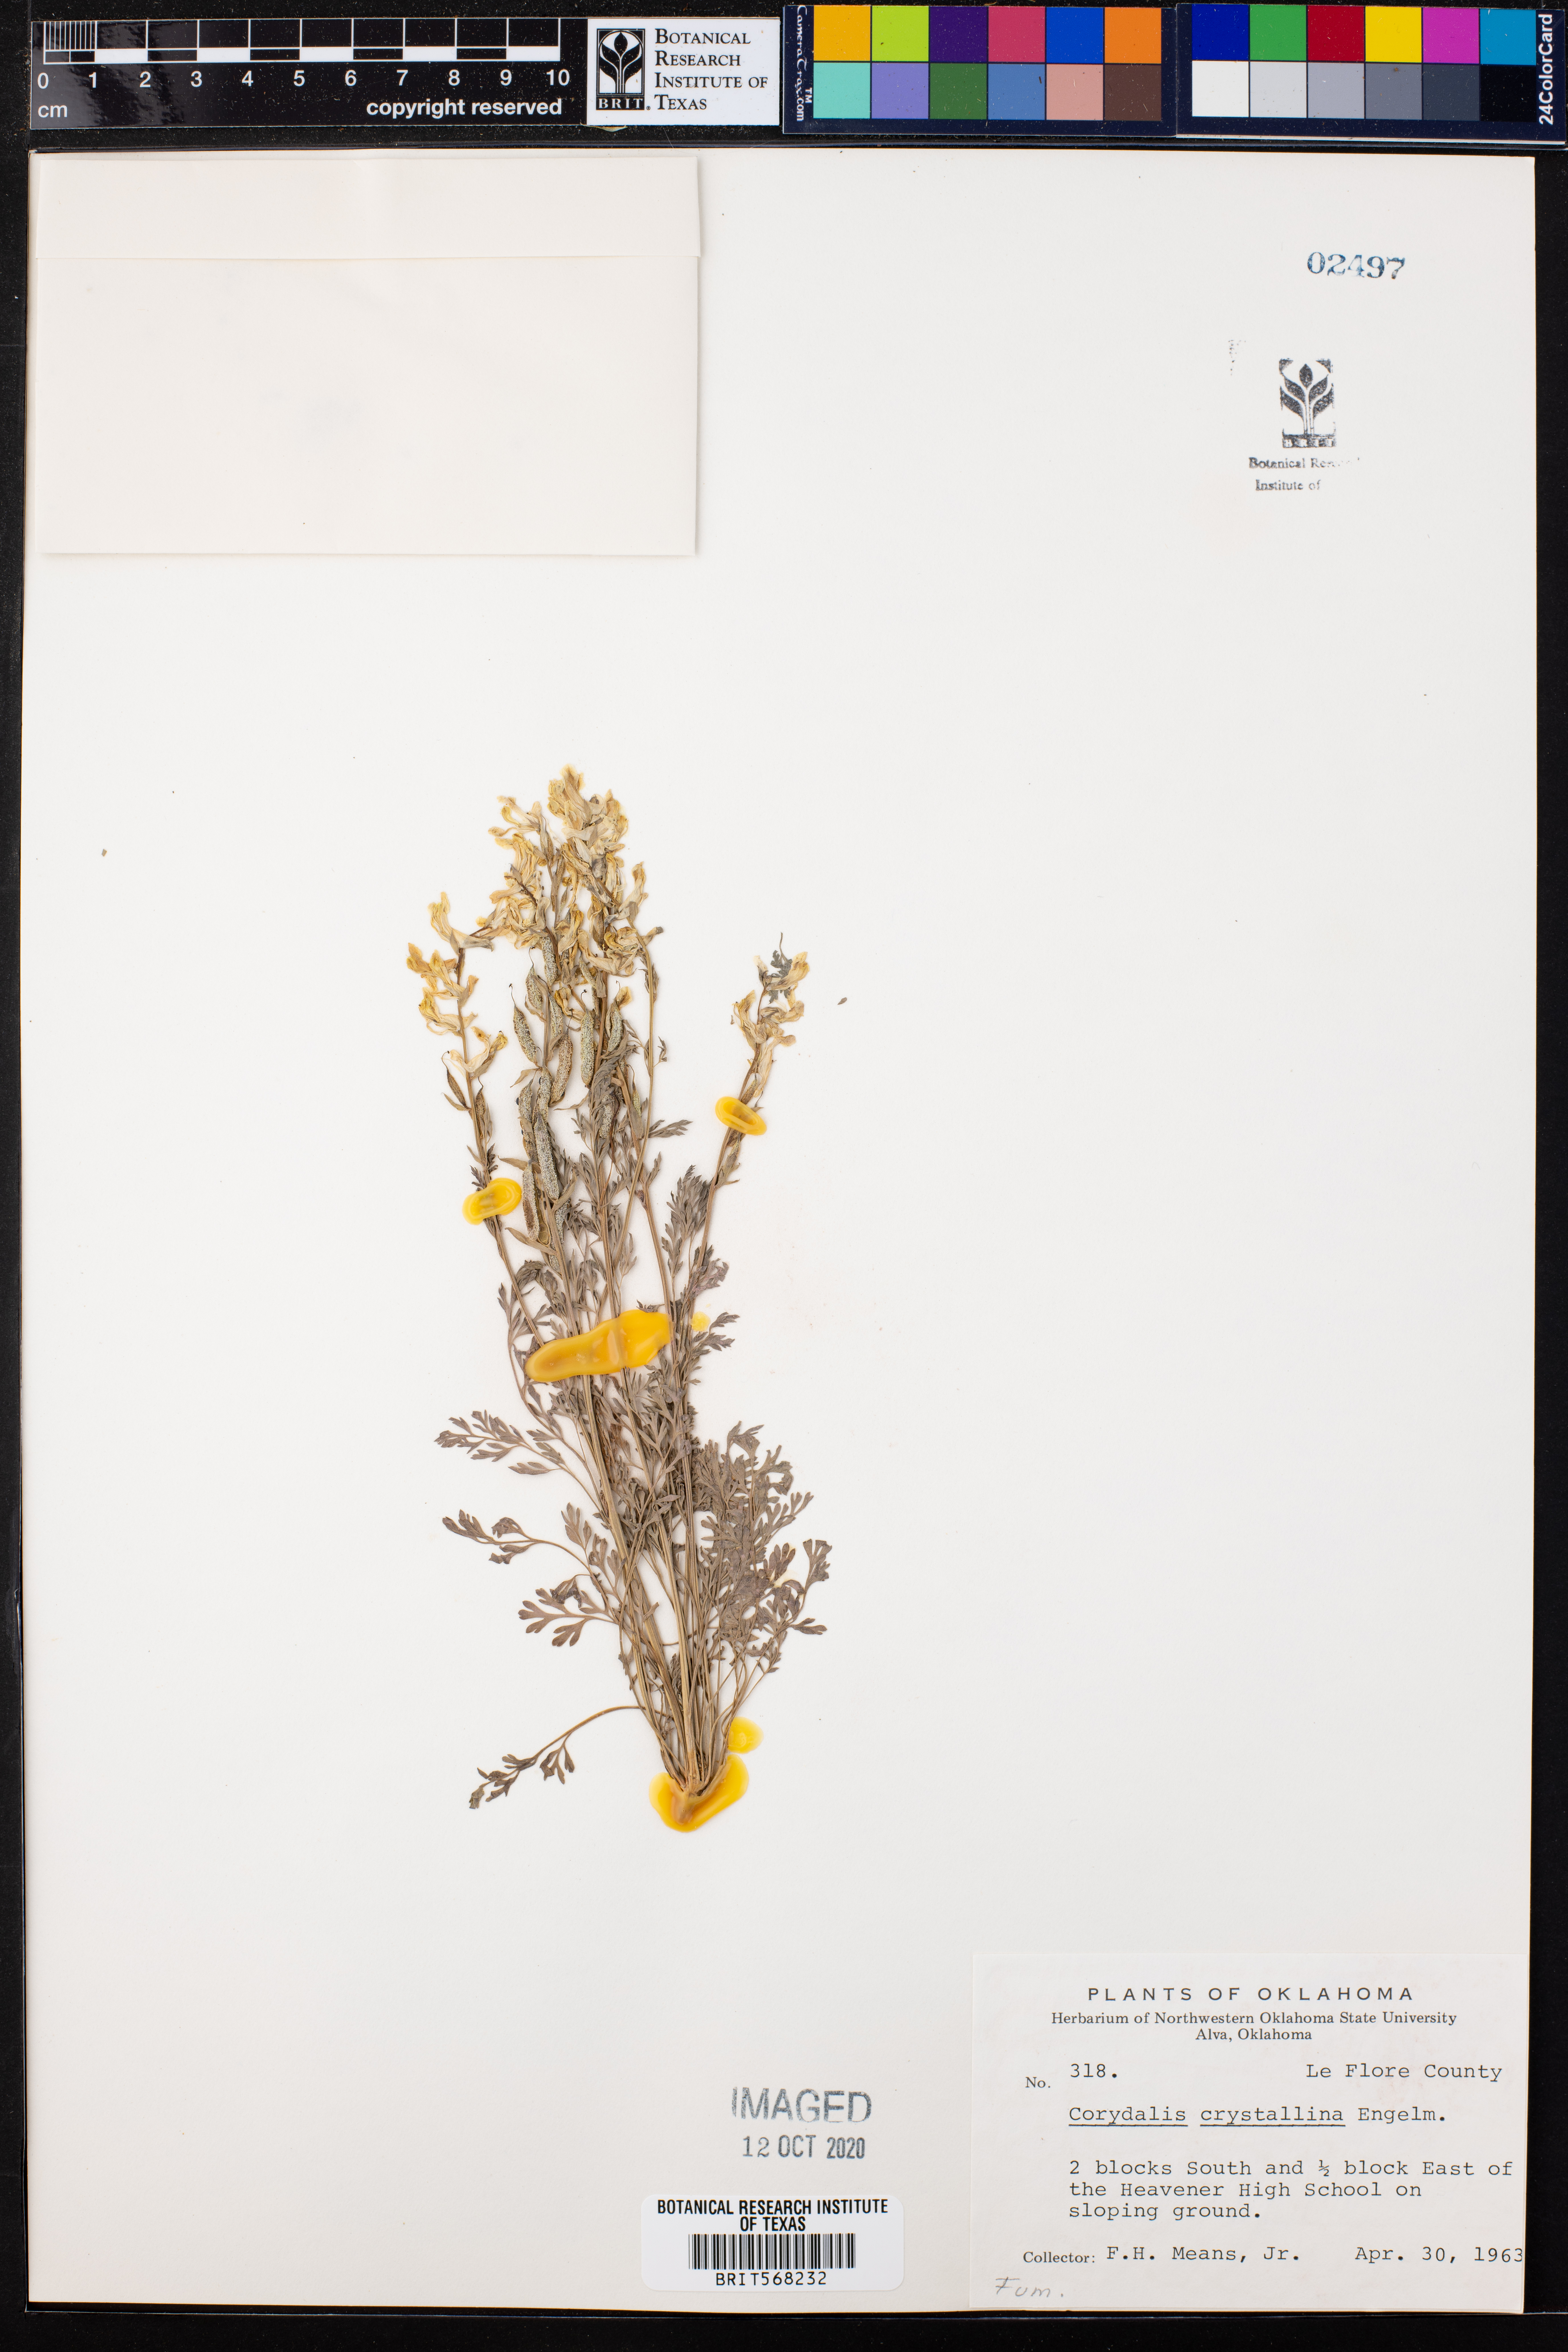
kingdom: Plantae
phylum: Tracheophyta
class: Magnoliopsida
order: Ranunculales
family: Papaveraceae
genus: Corydalis
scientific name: Corydalis crystallina
